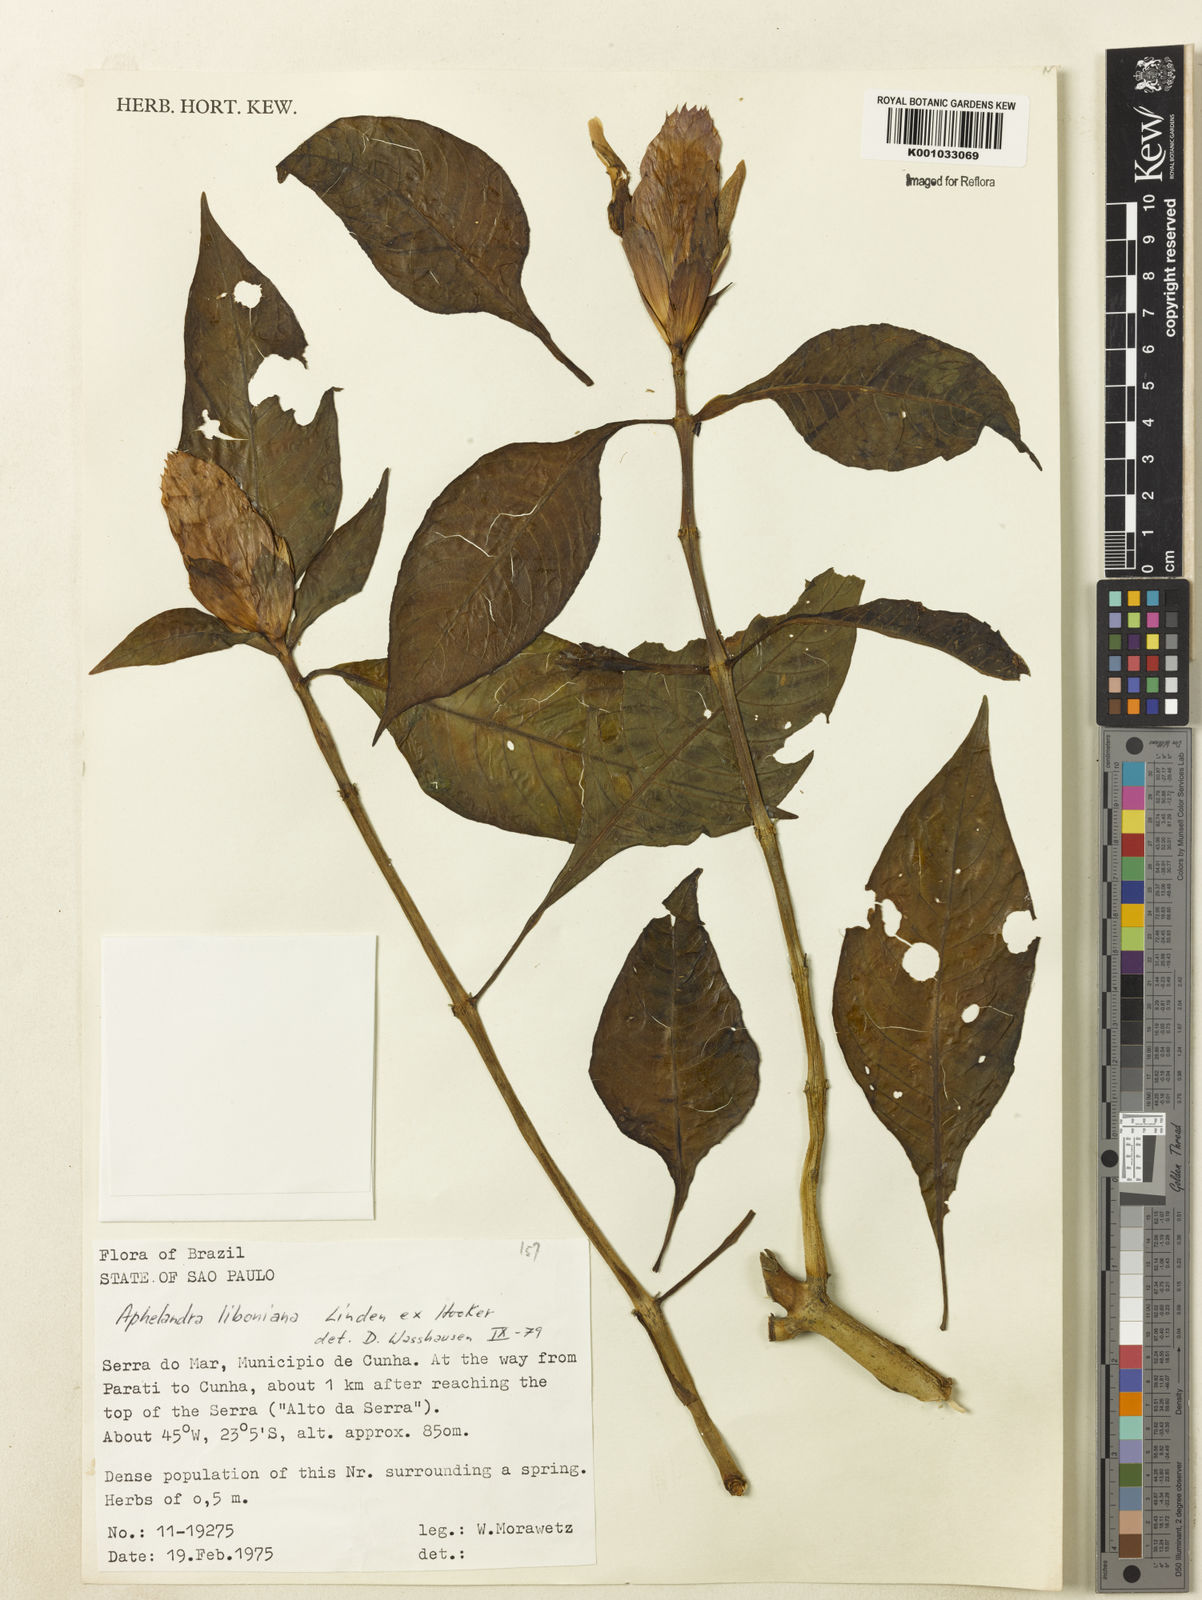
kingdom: Plantae
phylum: Tracheophyta
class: Magnoliopsida
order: Lamiales
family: Acanthaceae
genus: Aphelandra
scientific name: Aphelandra liboniana
